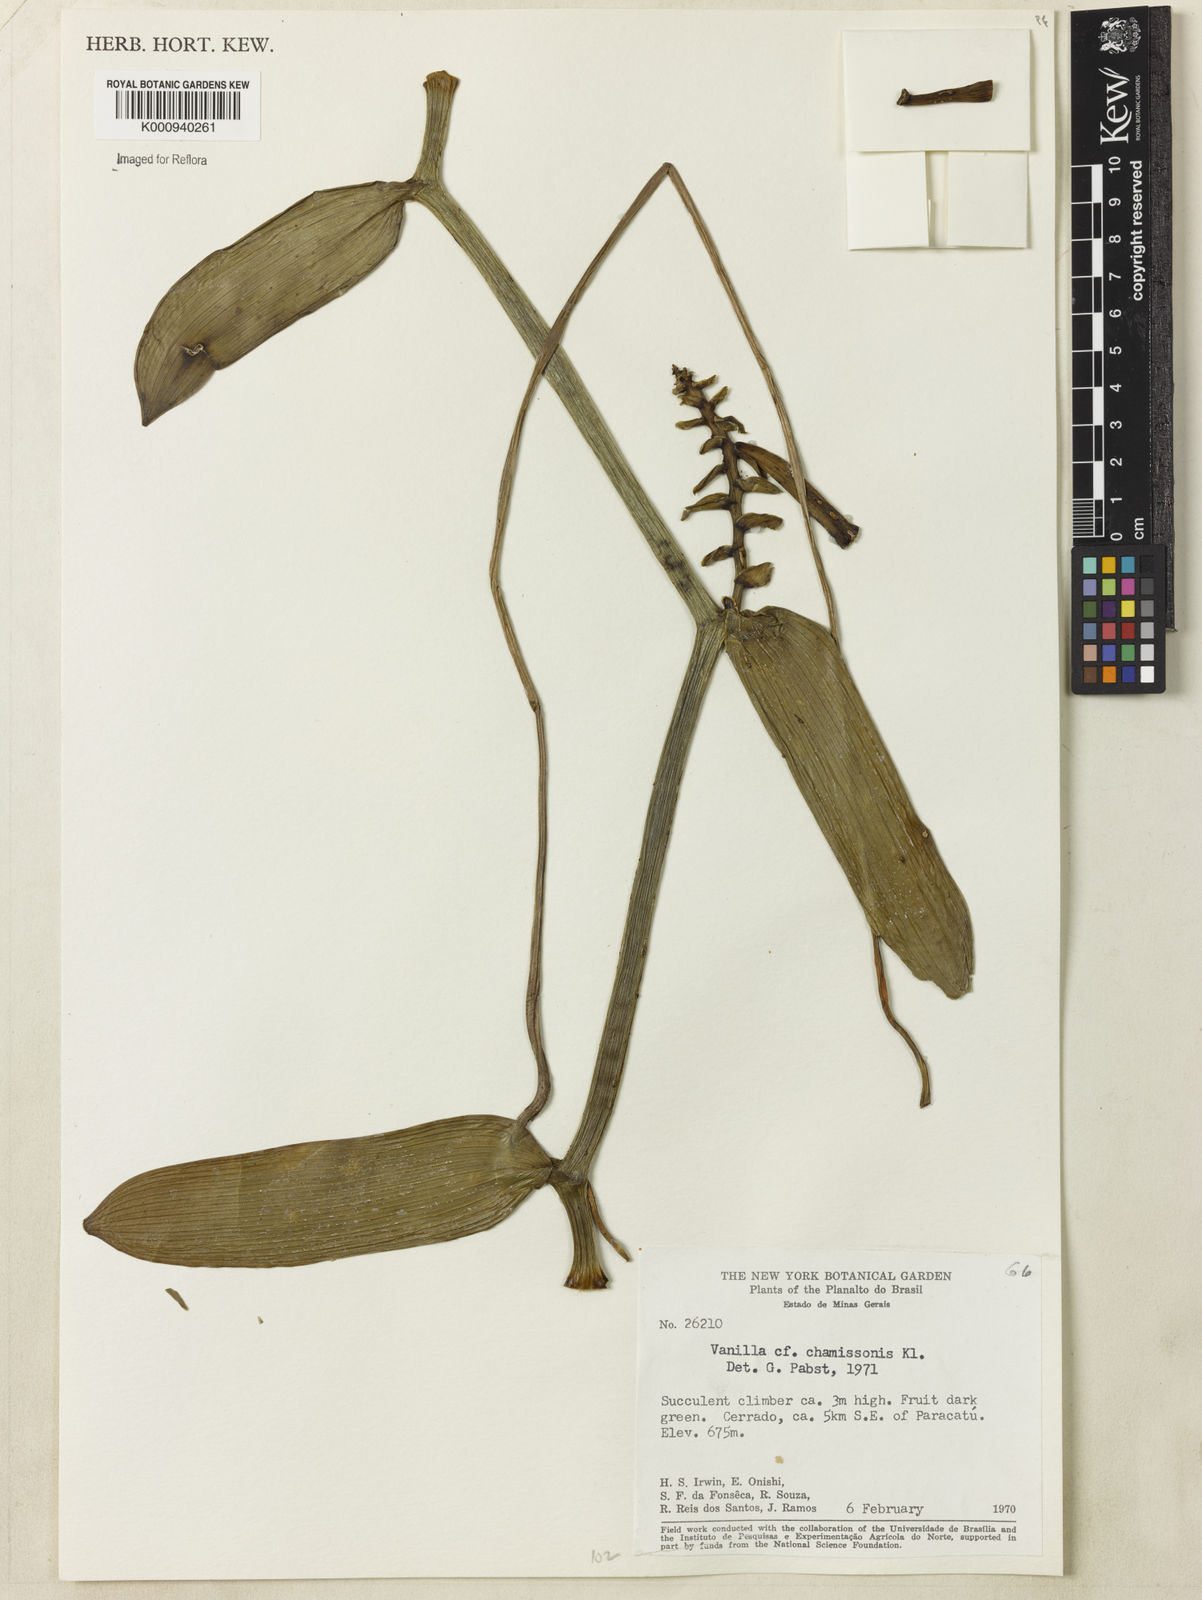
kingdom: Plantae
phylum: Tracheophyta
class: Liliopsida
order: Asparagales
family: Orchidaceae
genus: Vanilla
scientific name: Vanilla phaeantha
